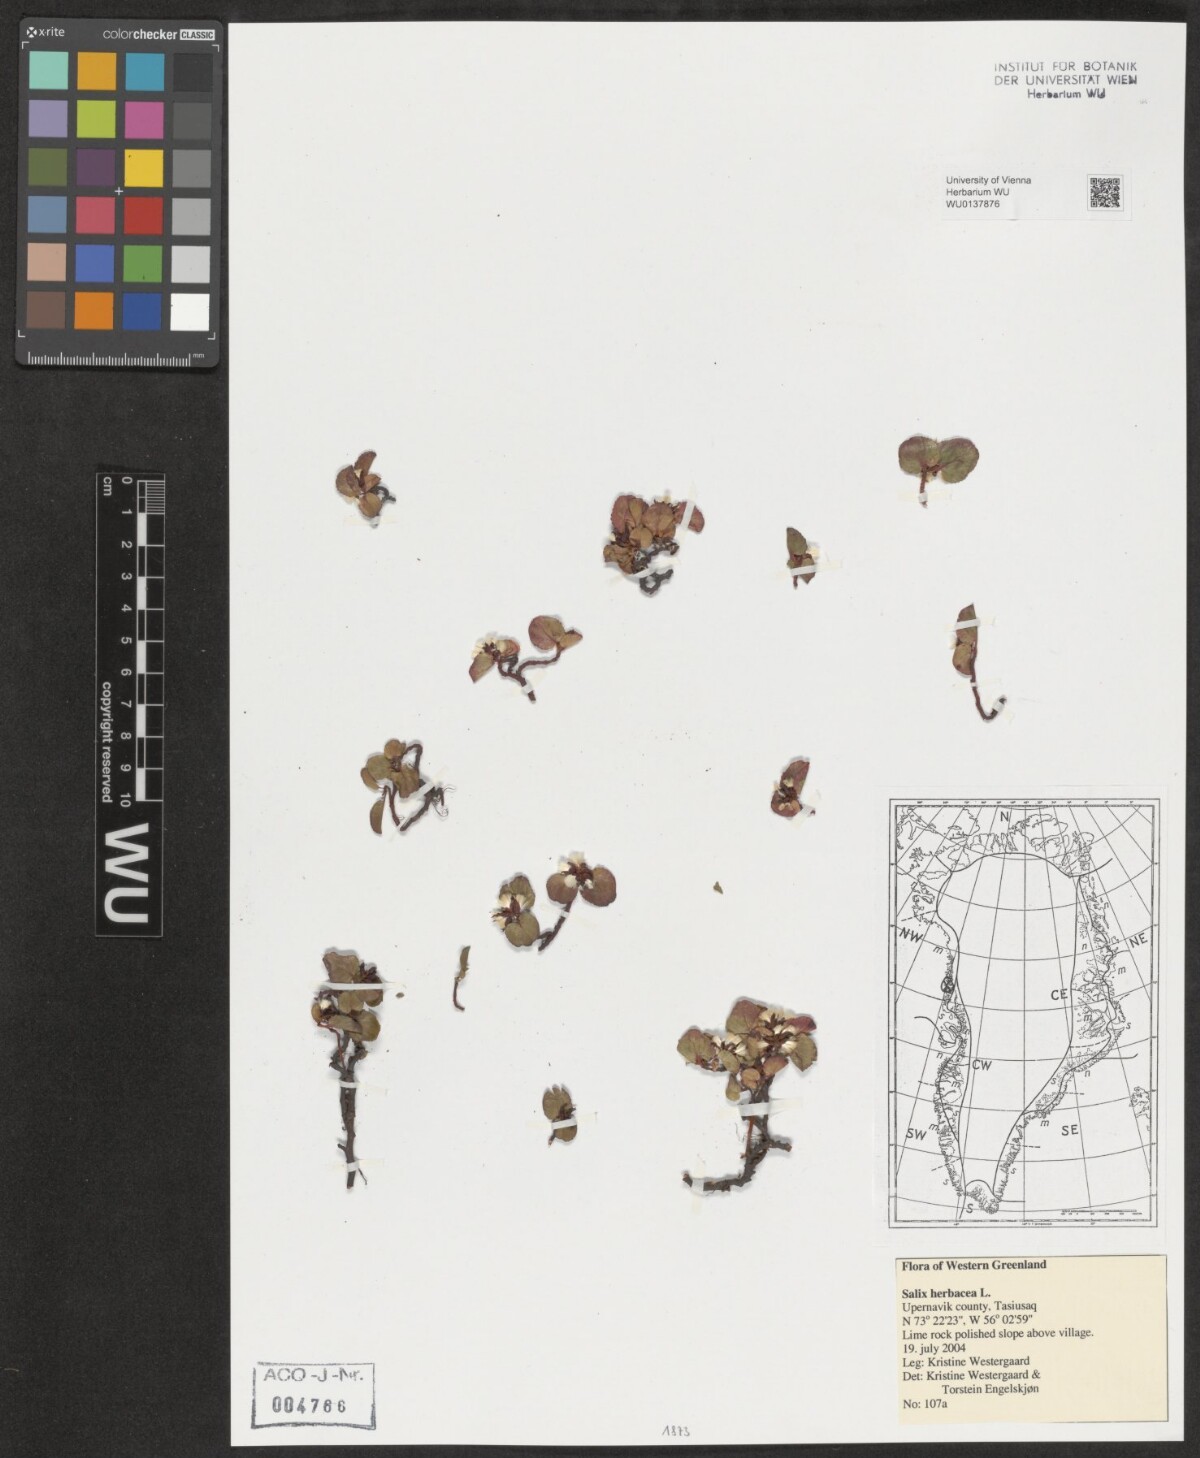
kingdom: Plantae
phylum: Tracheophyta
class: Magnoliopsida
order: Malpighiales
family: Salicaceae
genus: Salix
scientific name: Salix herbacea
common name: Dwarf willow
